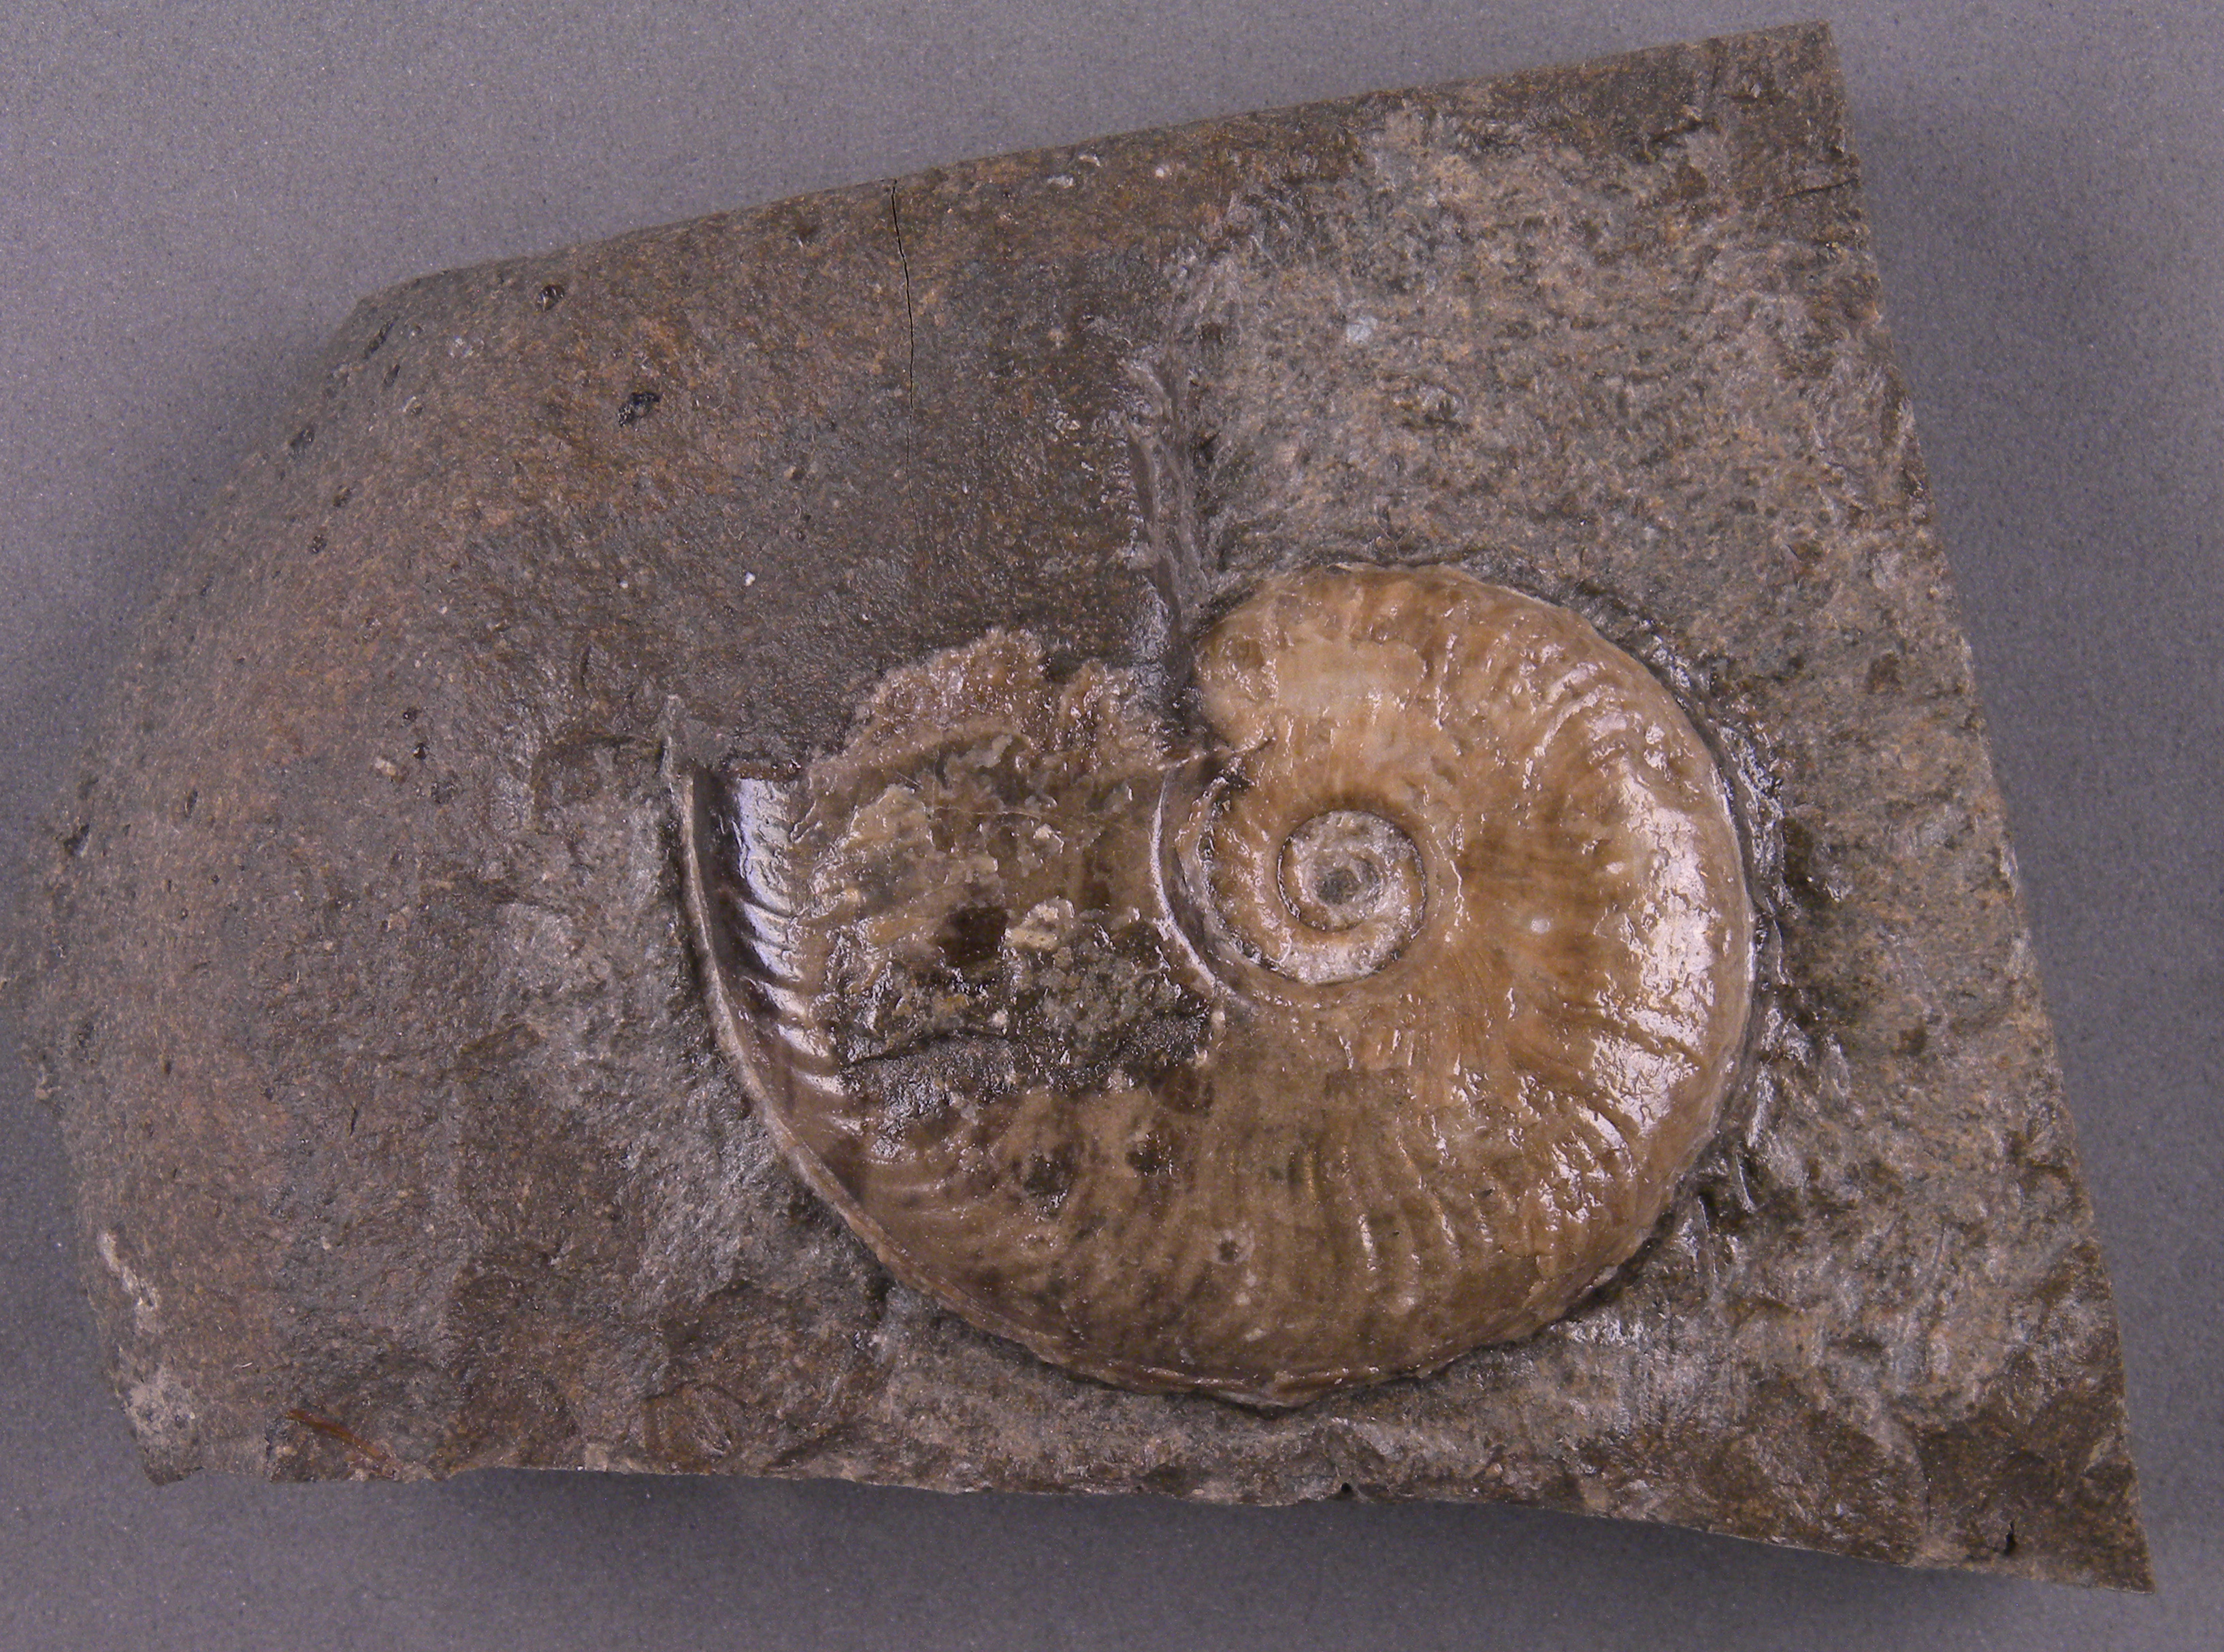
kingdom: Animalia
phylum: Mollusca
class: Cephalopoda
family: Hildoceratidae
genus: Harpoceras
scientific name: Harpoceras
